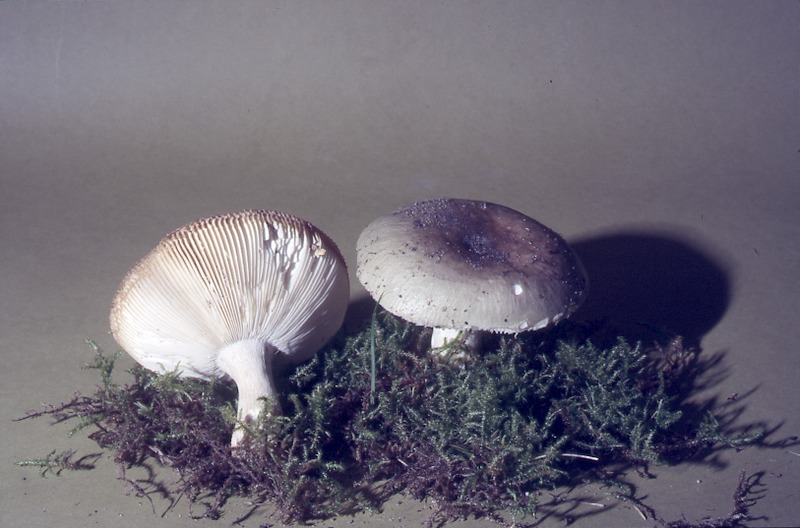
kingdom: Fungi
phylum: Basidiomycota
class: Agaricomycetes
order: Russulales
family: Russulaceae
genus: Russula
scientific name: Russula heterophylla
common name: Greasy green brittlegill
